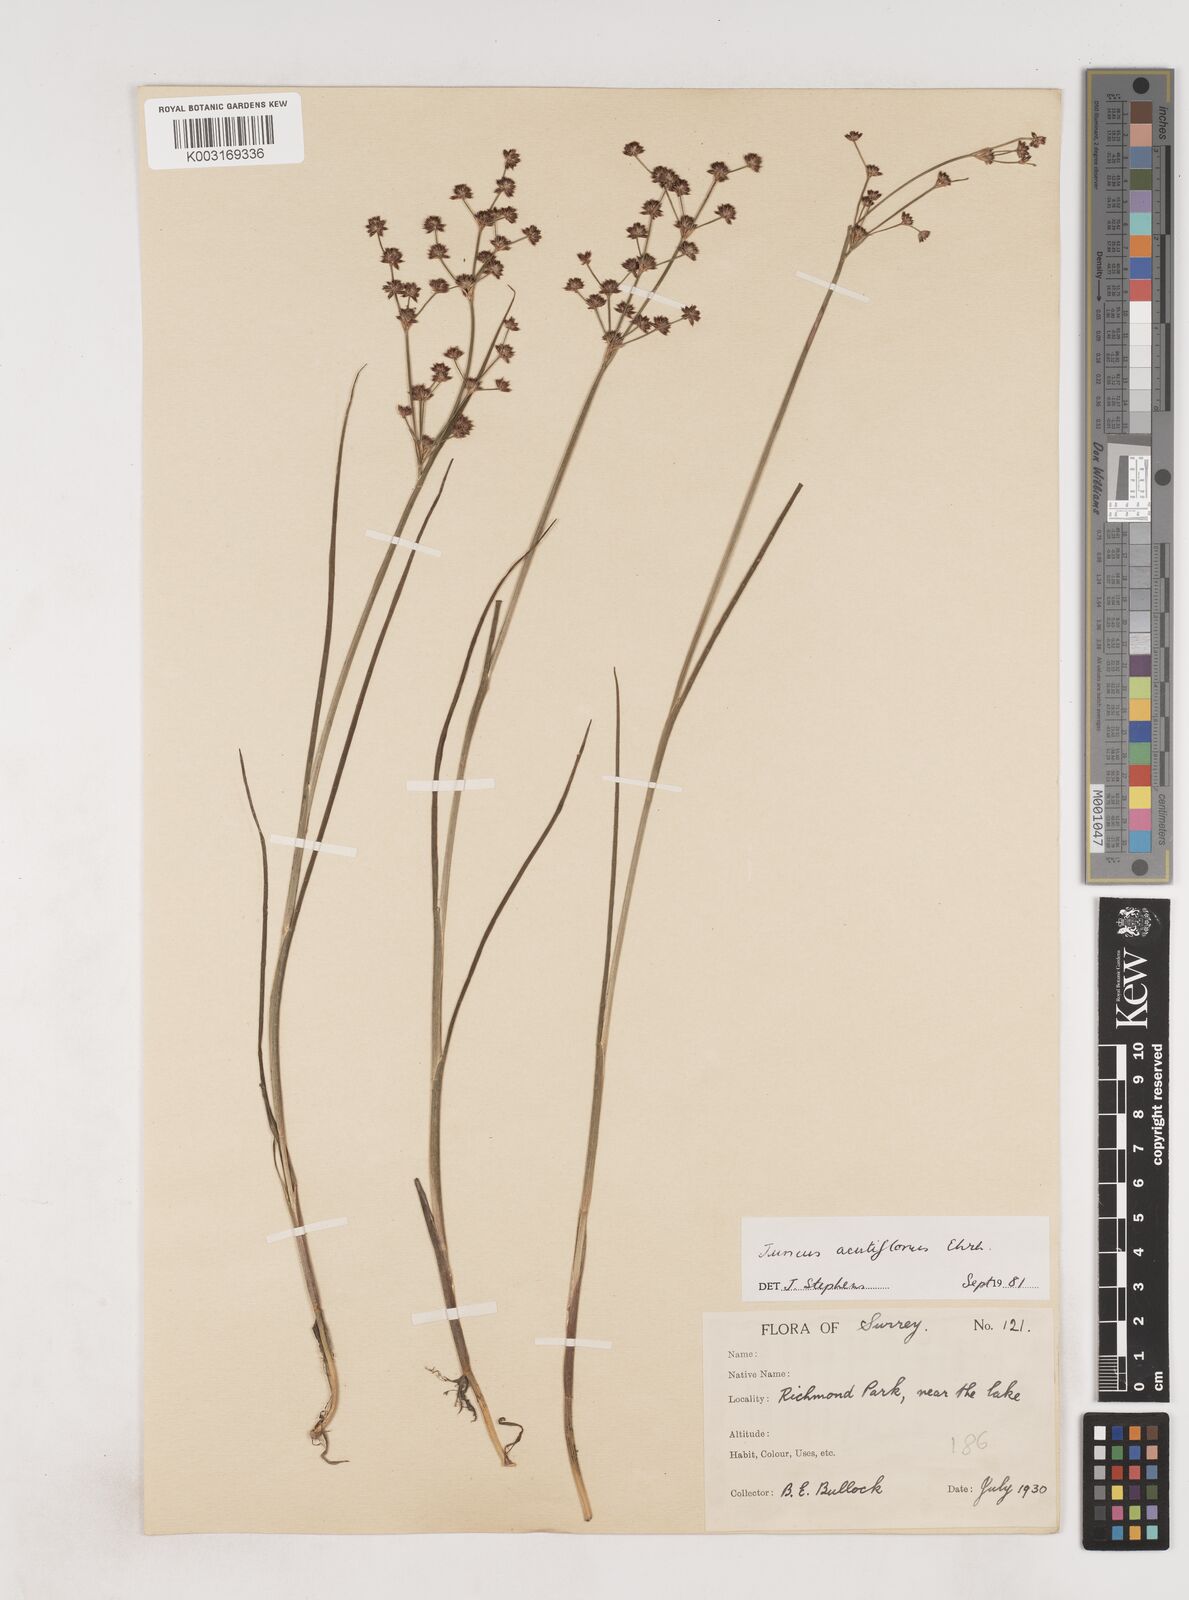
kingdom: Plantae
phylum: Tracheophyta
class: Liliopsida
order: Poales
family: Juncaceae
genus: Juncus
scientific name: Juncus acutiflorus
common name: Sharp-flowered rush
